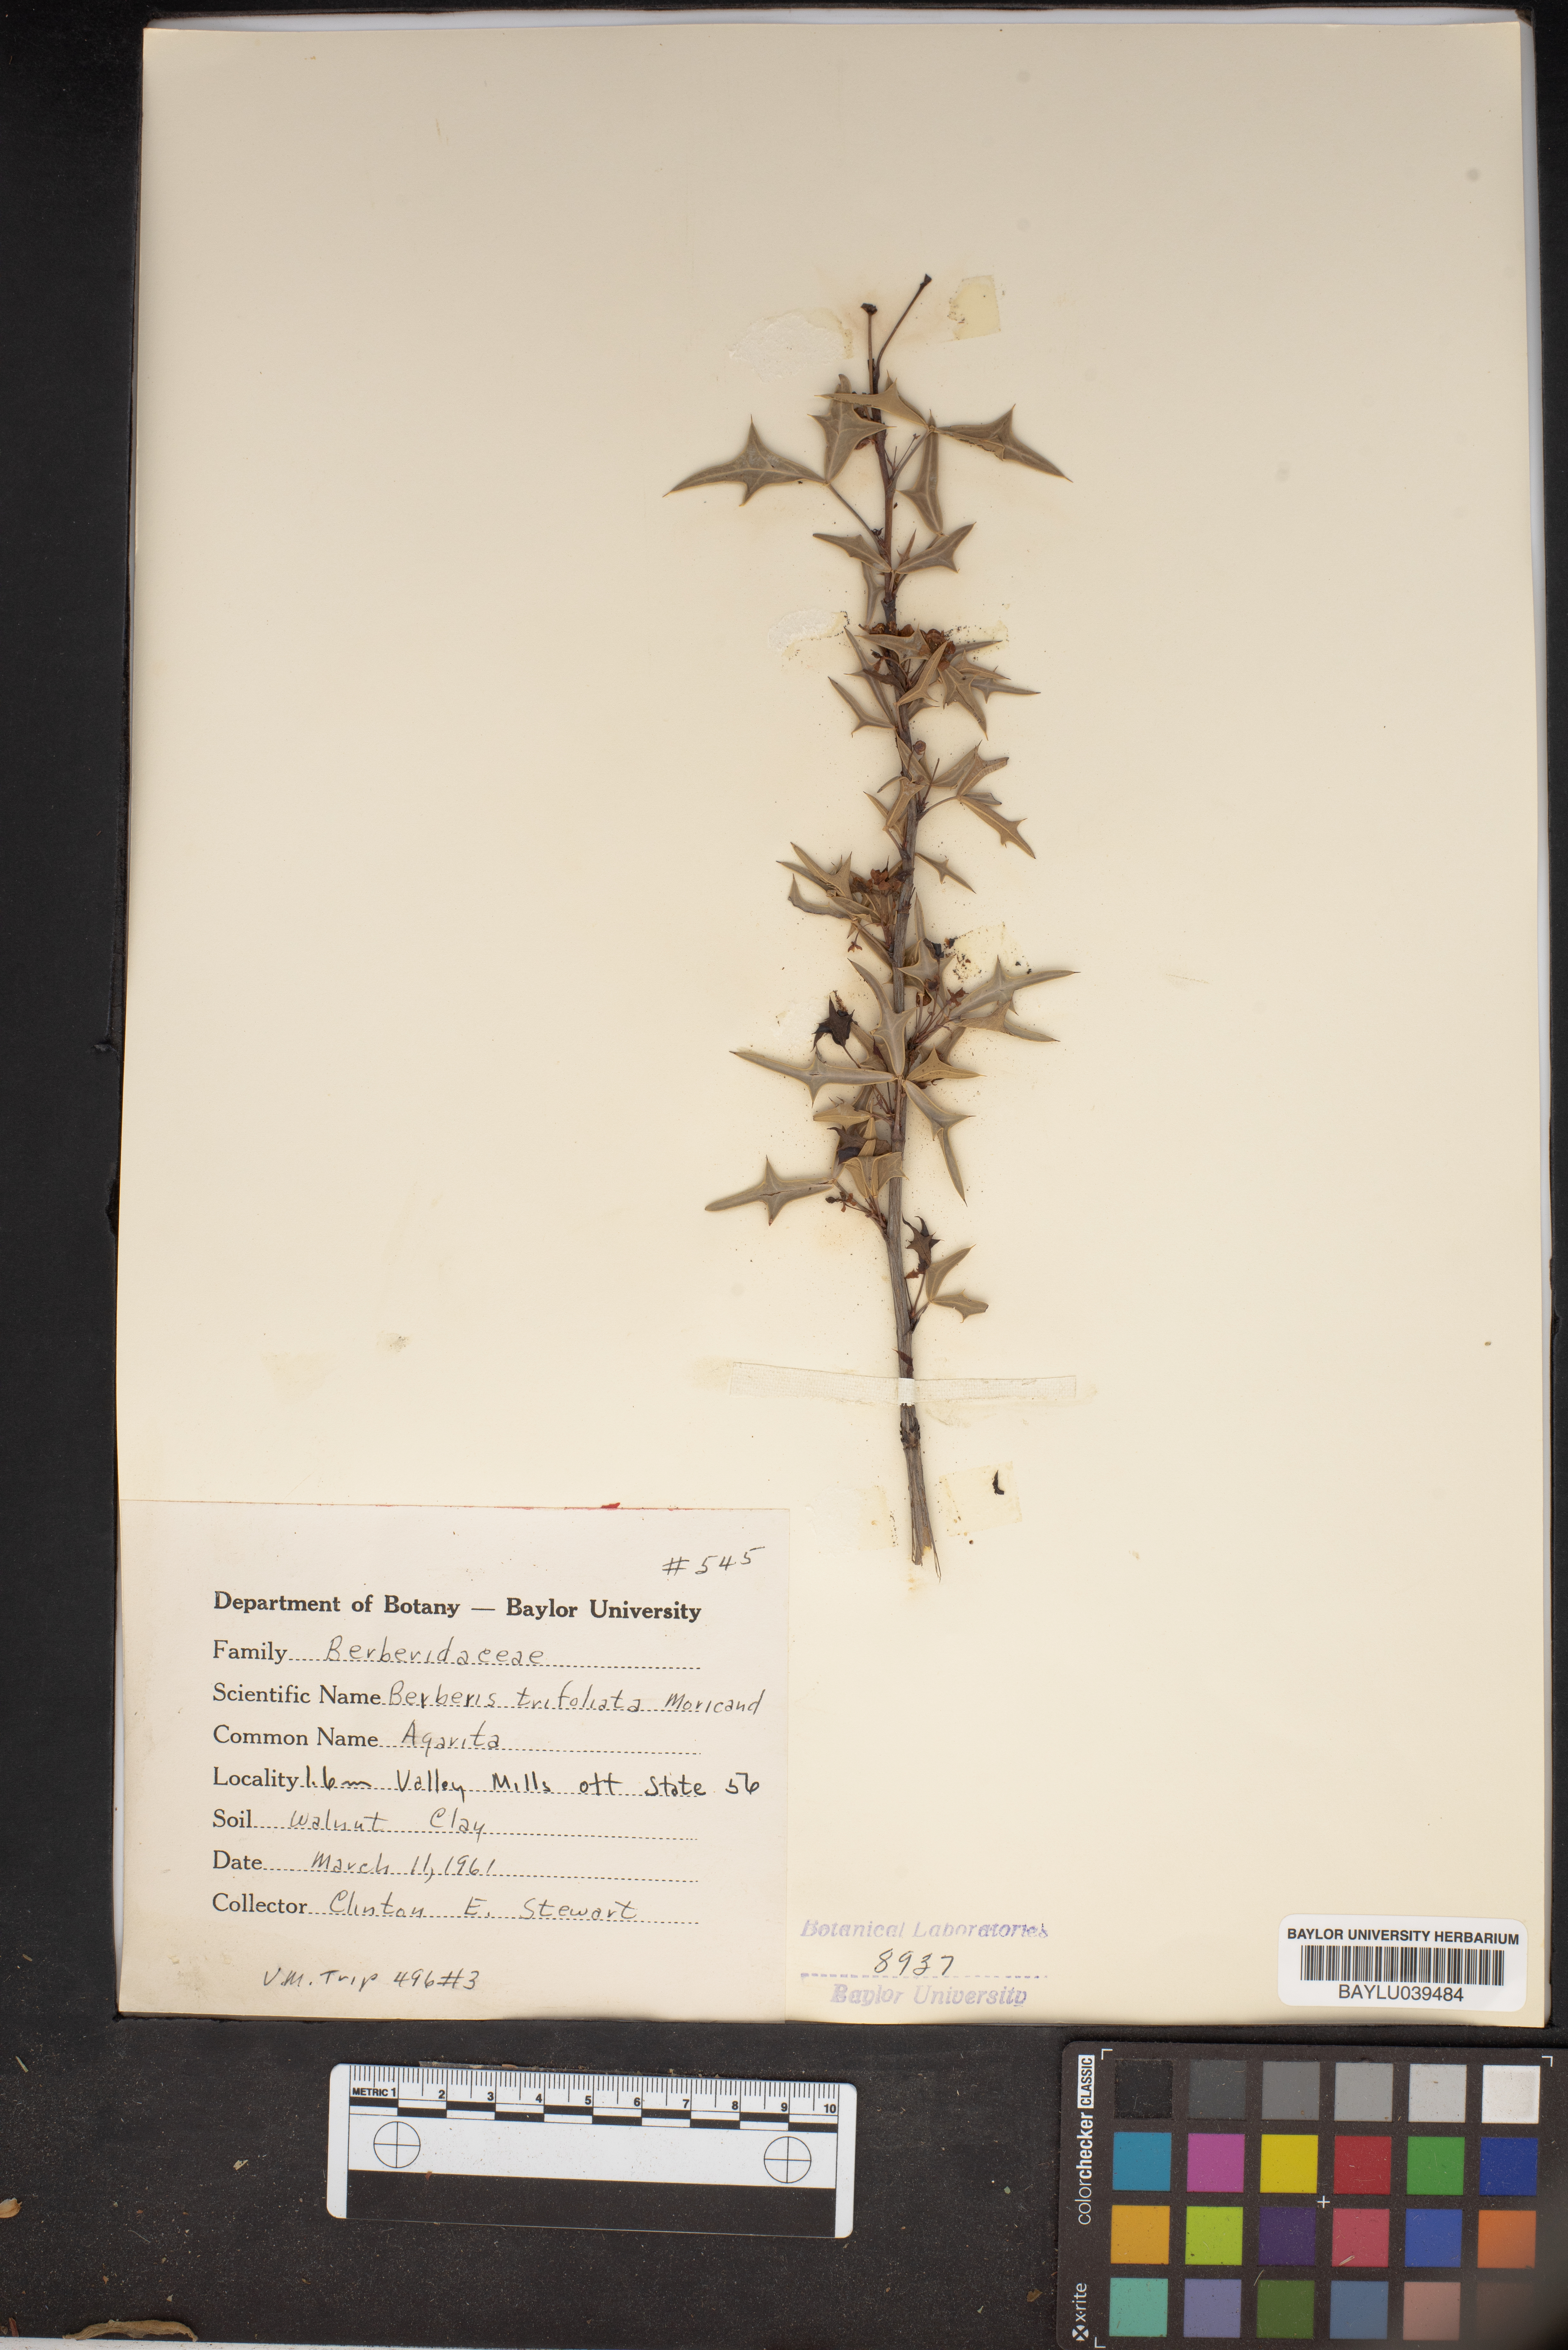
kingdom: Plantae
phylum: Tracheophyta
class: Magnoliopsida
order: Ranunculales
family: Berberidaceae
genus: Alloberberis
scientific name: Alloberberis fremontii
